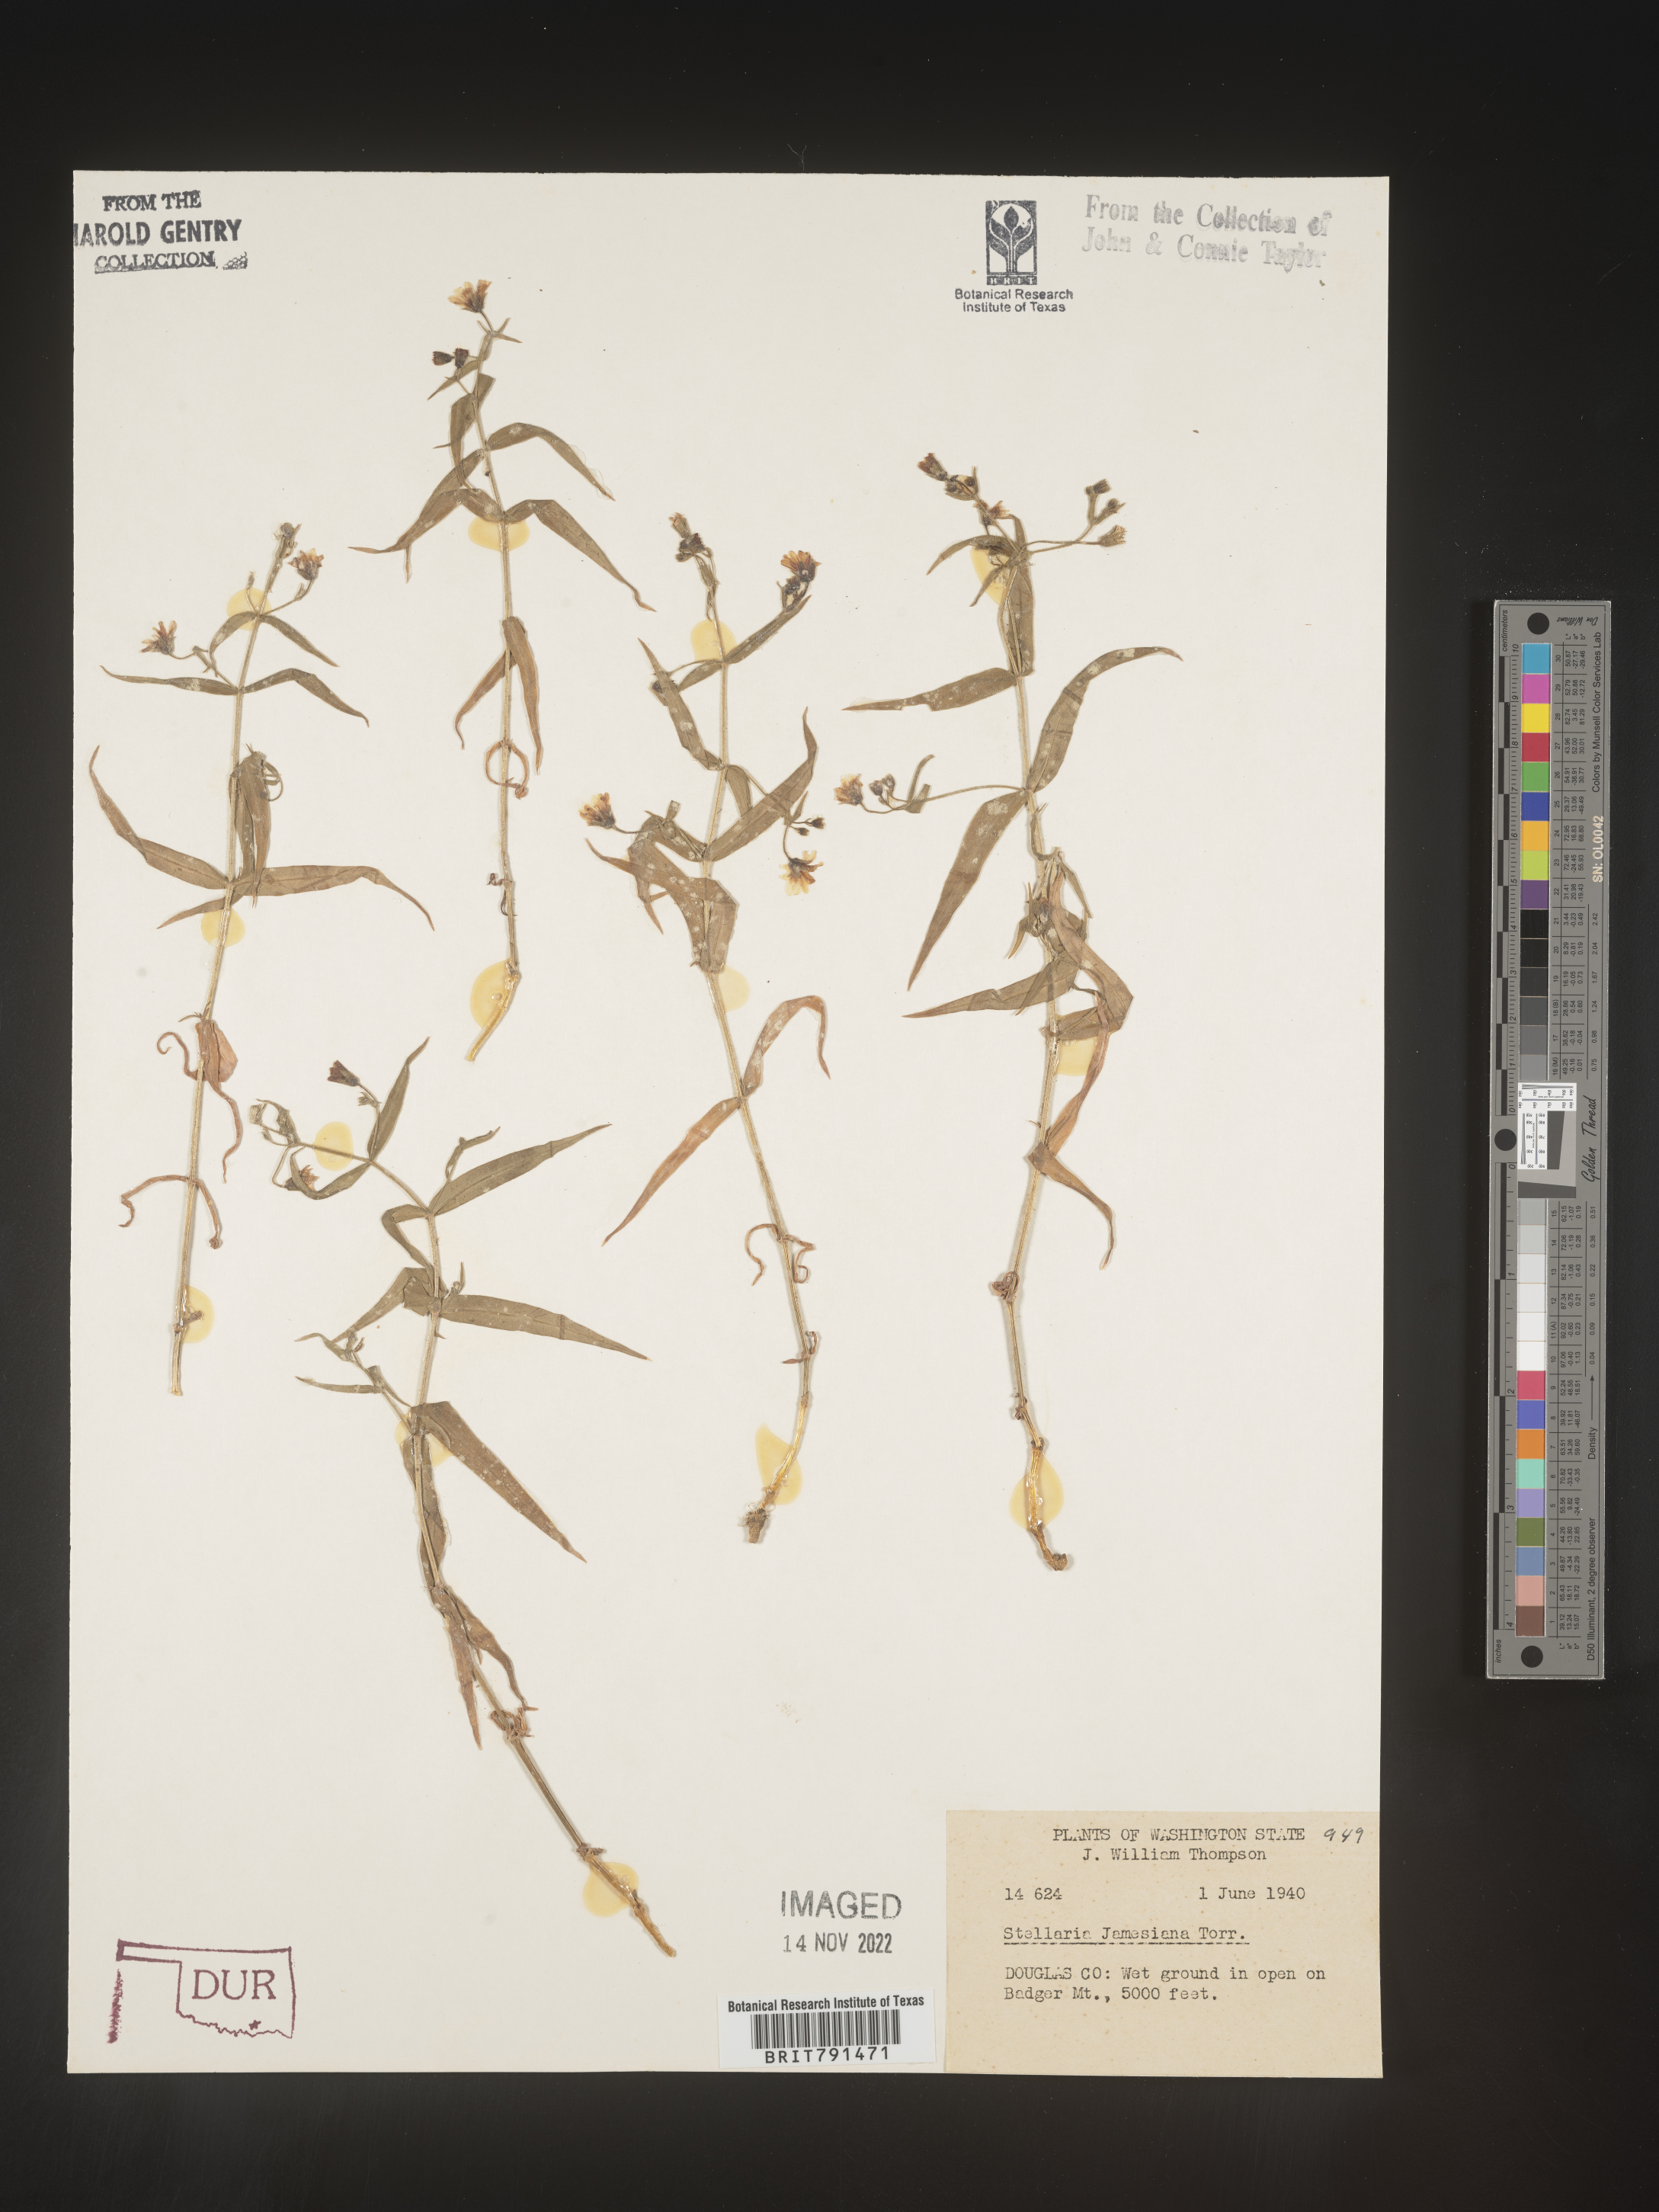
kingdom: Plantae
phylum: Tracheophyta
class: Magnoliopsida
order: Caryophyllales
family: Caryophyllaceae
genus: Pseudostellaria
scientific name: Pseudostellaria
